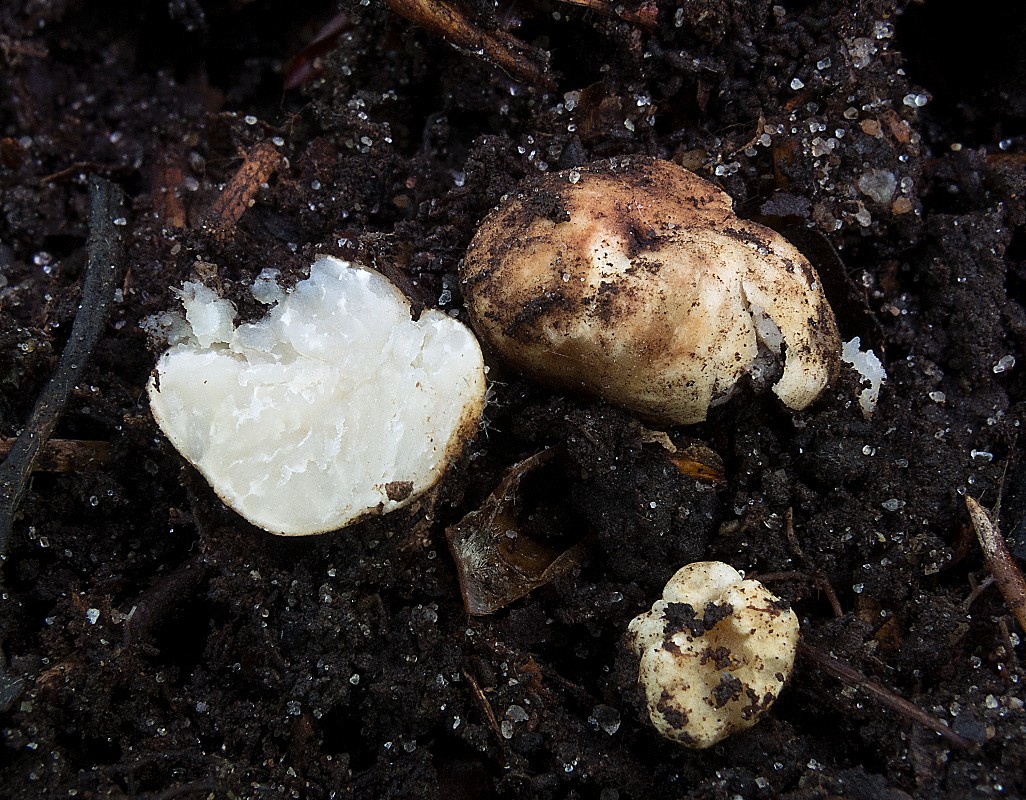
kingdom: Fungi
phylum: Ascomycota
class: Pezizomycetes
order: Pezizales
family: Tuberaceae
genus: Tuber
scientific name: Tuber maculatum
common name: plettet trøffel
